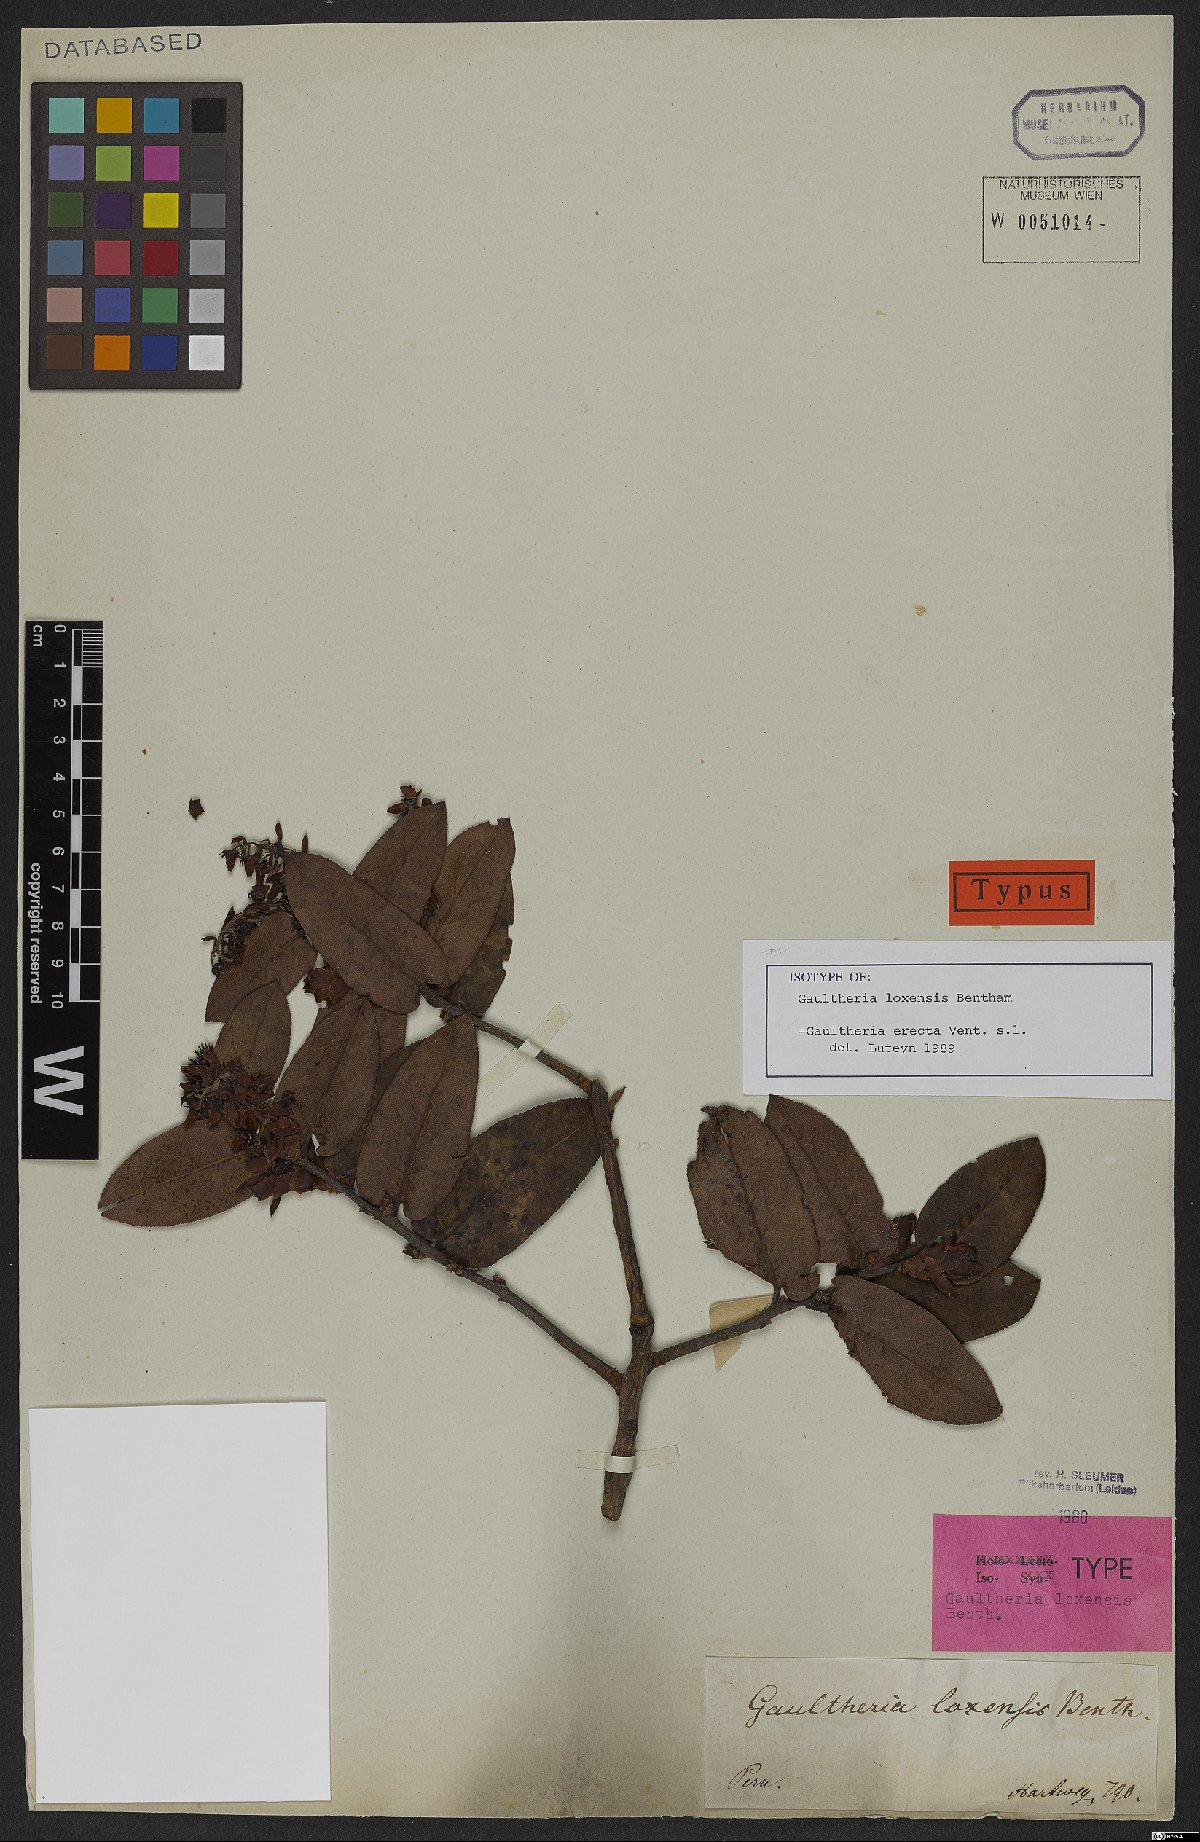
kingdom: Plantae
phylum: Tracheophyta
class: Magnoliopsida
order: Ericales
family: Ericaceae
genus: Gaultheria
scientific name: Gaultheria erecta
